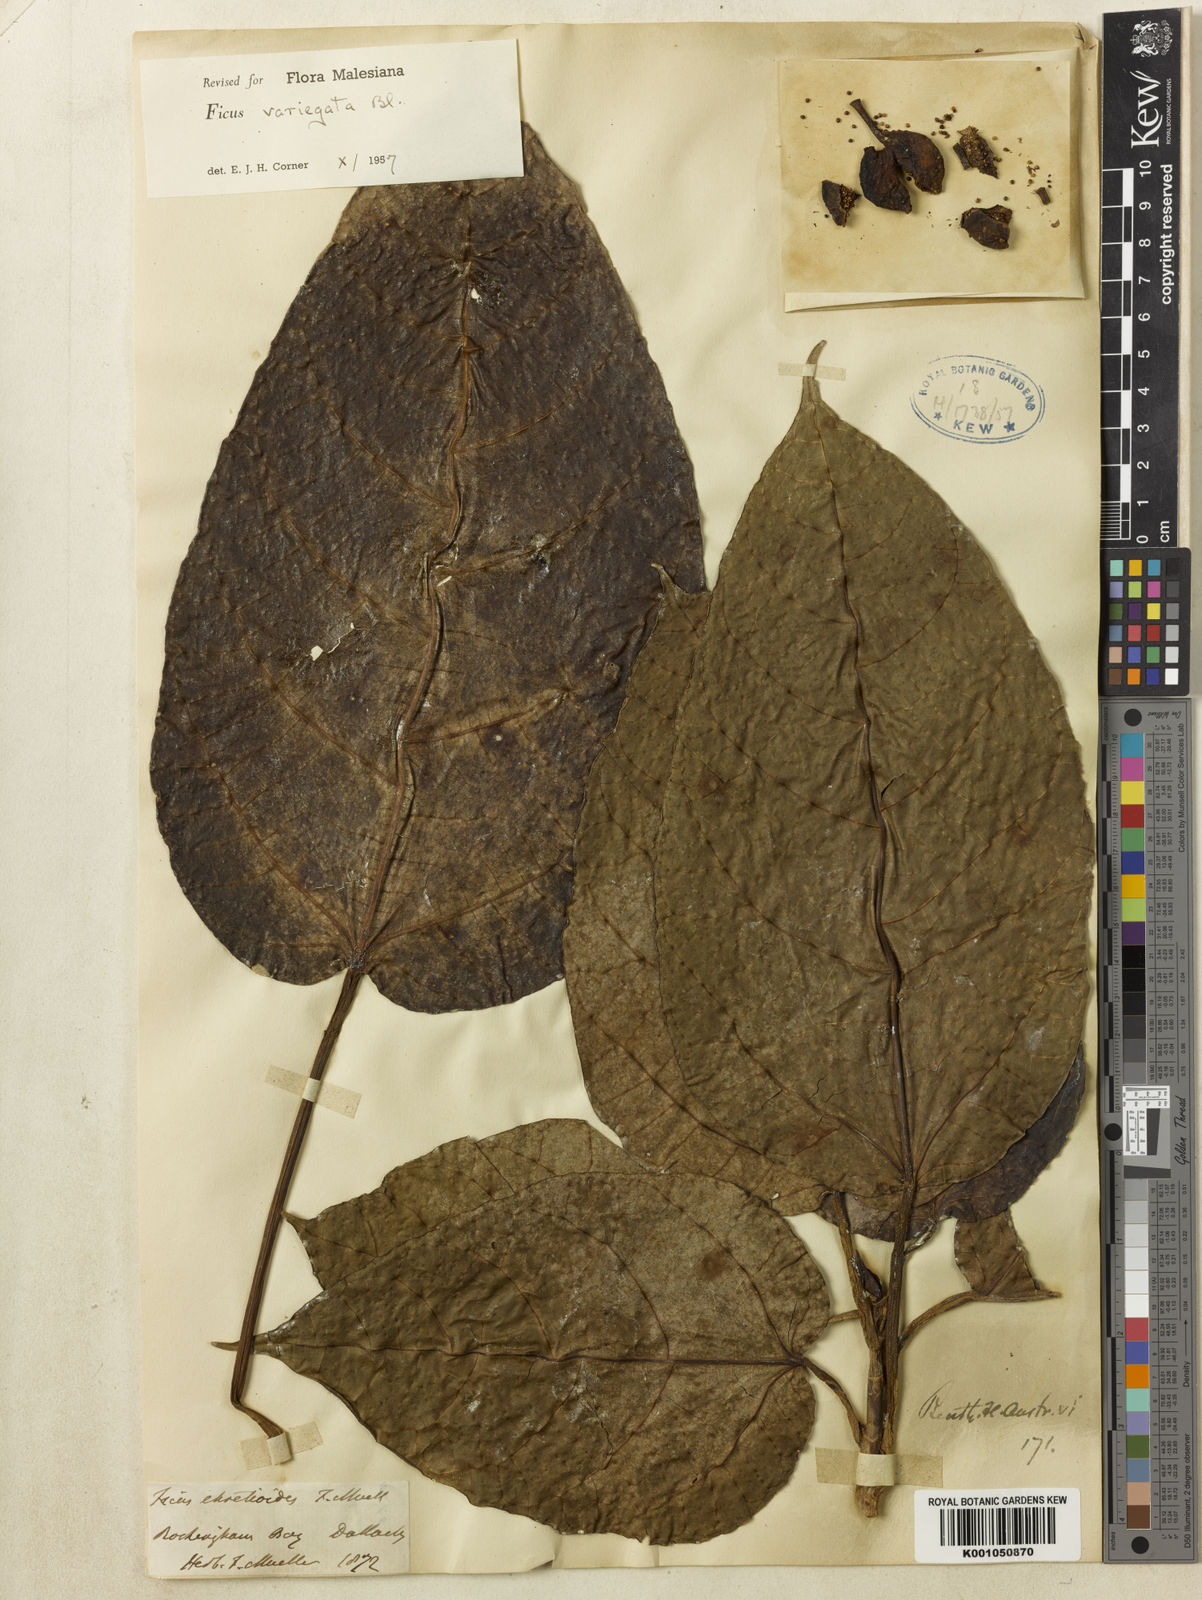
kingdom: Plantae
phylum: Tracheophyta
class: Magnoliopsida
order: Rosales
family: Moraceae
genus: Ficus
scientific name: Ficus variegata
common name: Variegated fig
